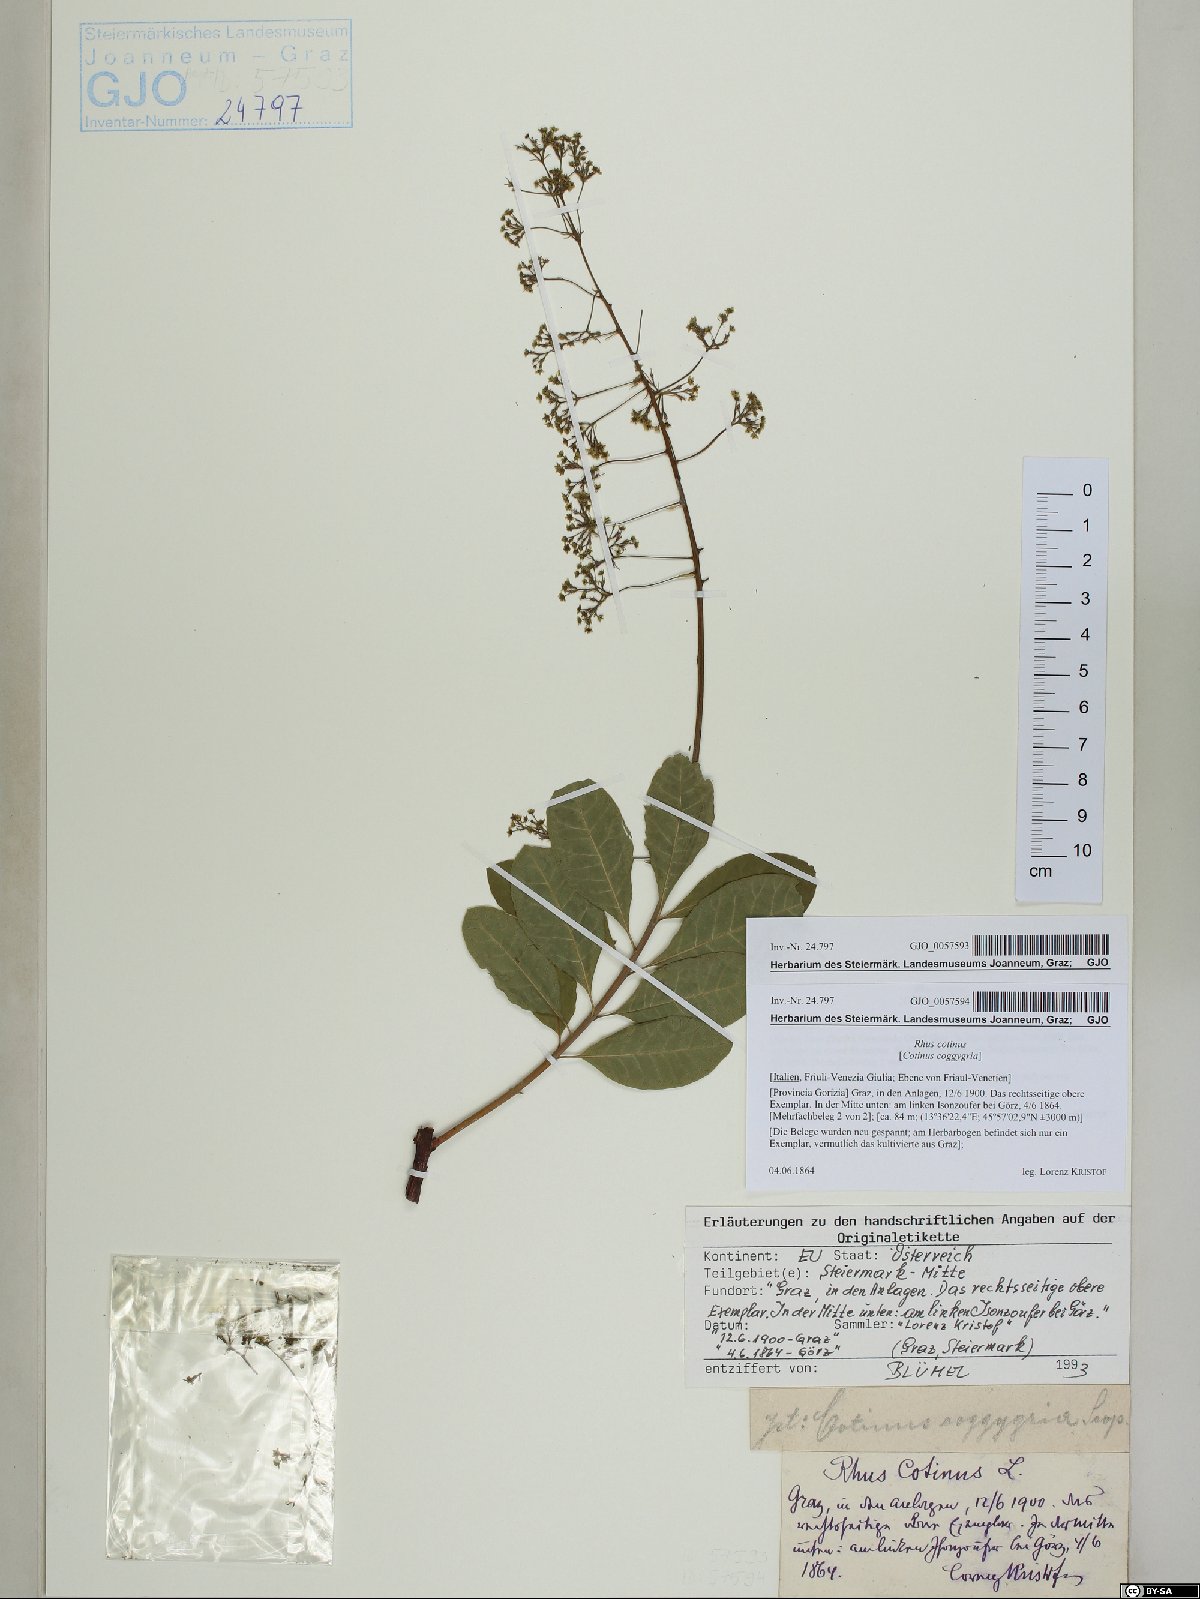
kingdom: Plantae
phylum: Tracheophyta
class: Magnoliopsida
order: Sapindales
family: Anacardiaceae
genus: Cotinus
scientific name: Cotinus coggygria
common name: Smoke-tree
